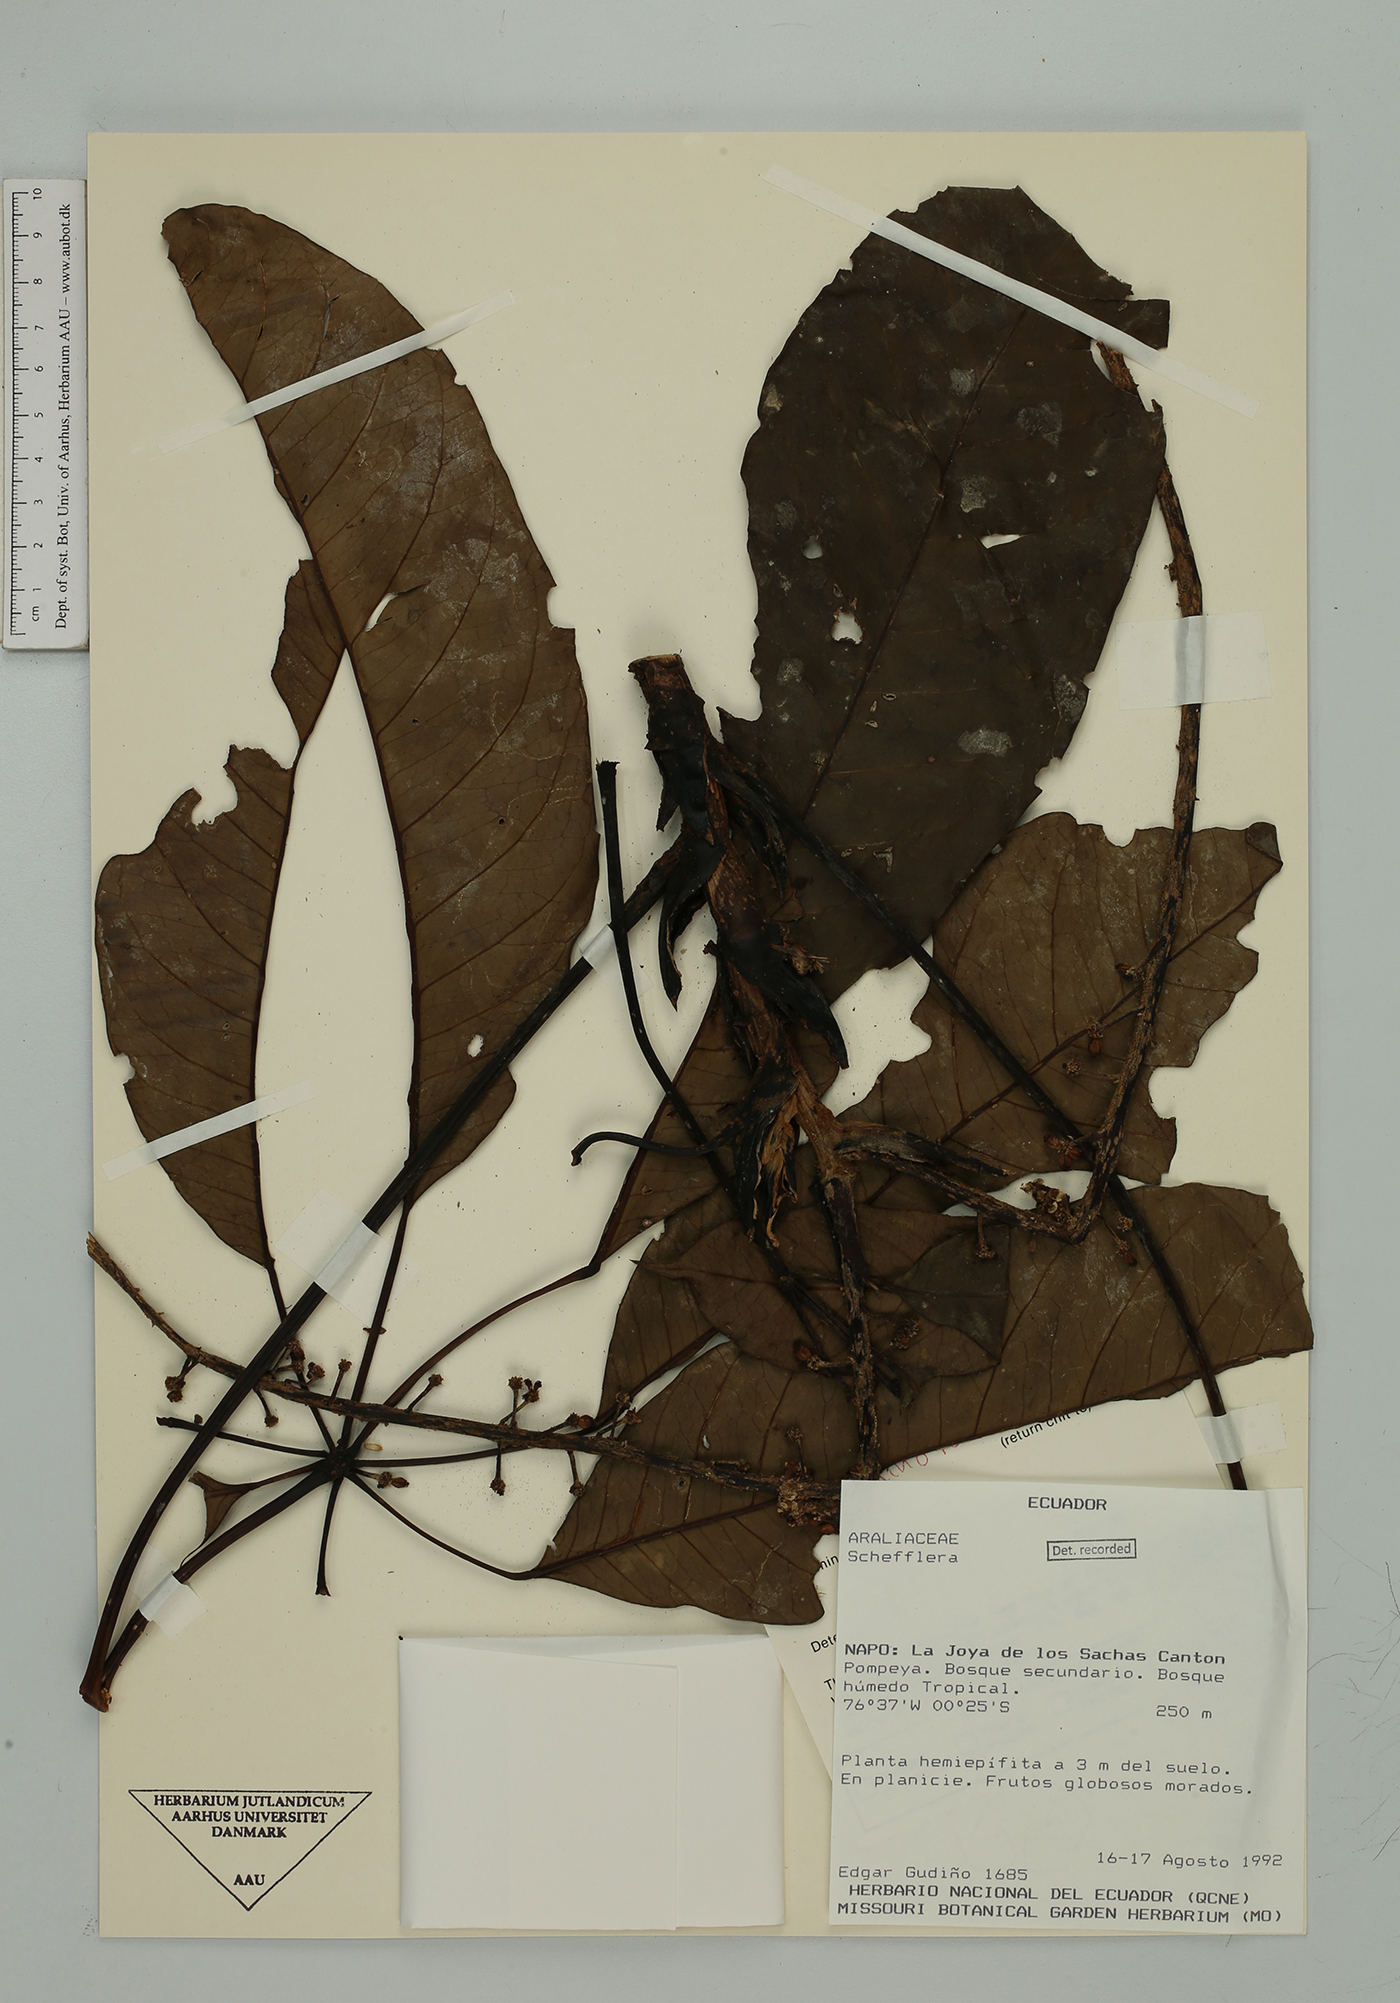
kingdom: Plantae
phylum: Tracheophyta
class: Magnoliopsida
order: Apiales
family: Araliaceae
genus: Sciodaphyllum
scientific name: Sciodaphyllum sprucei
